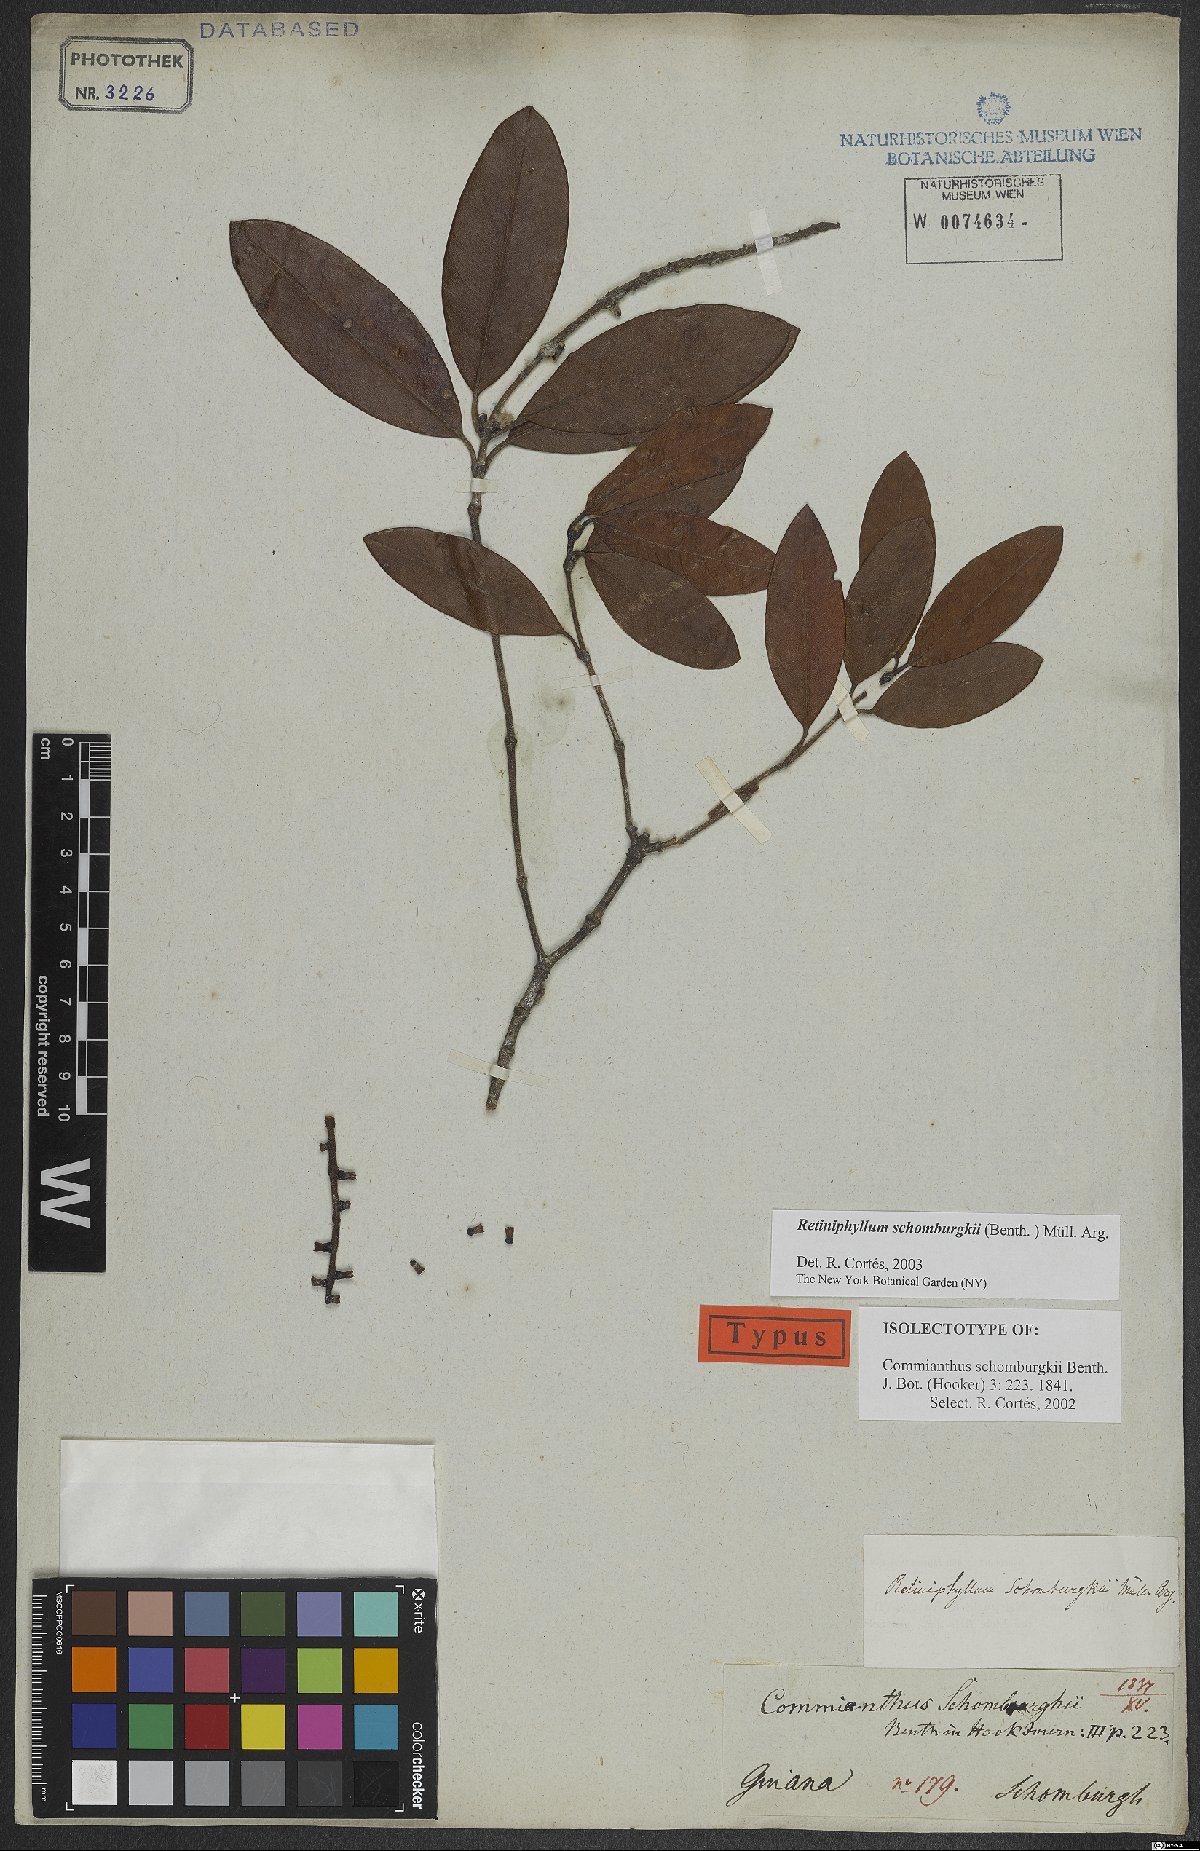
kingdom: Plantae
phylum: Tracheophyta
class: Magnoliopsida
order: Gentianales
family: Rubiaceae
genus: Retiniphyllum
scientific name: Retiniphyllum schomburgkii
